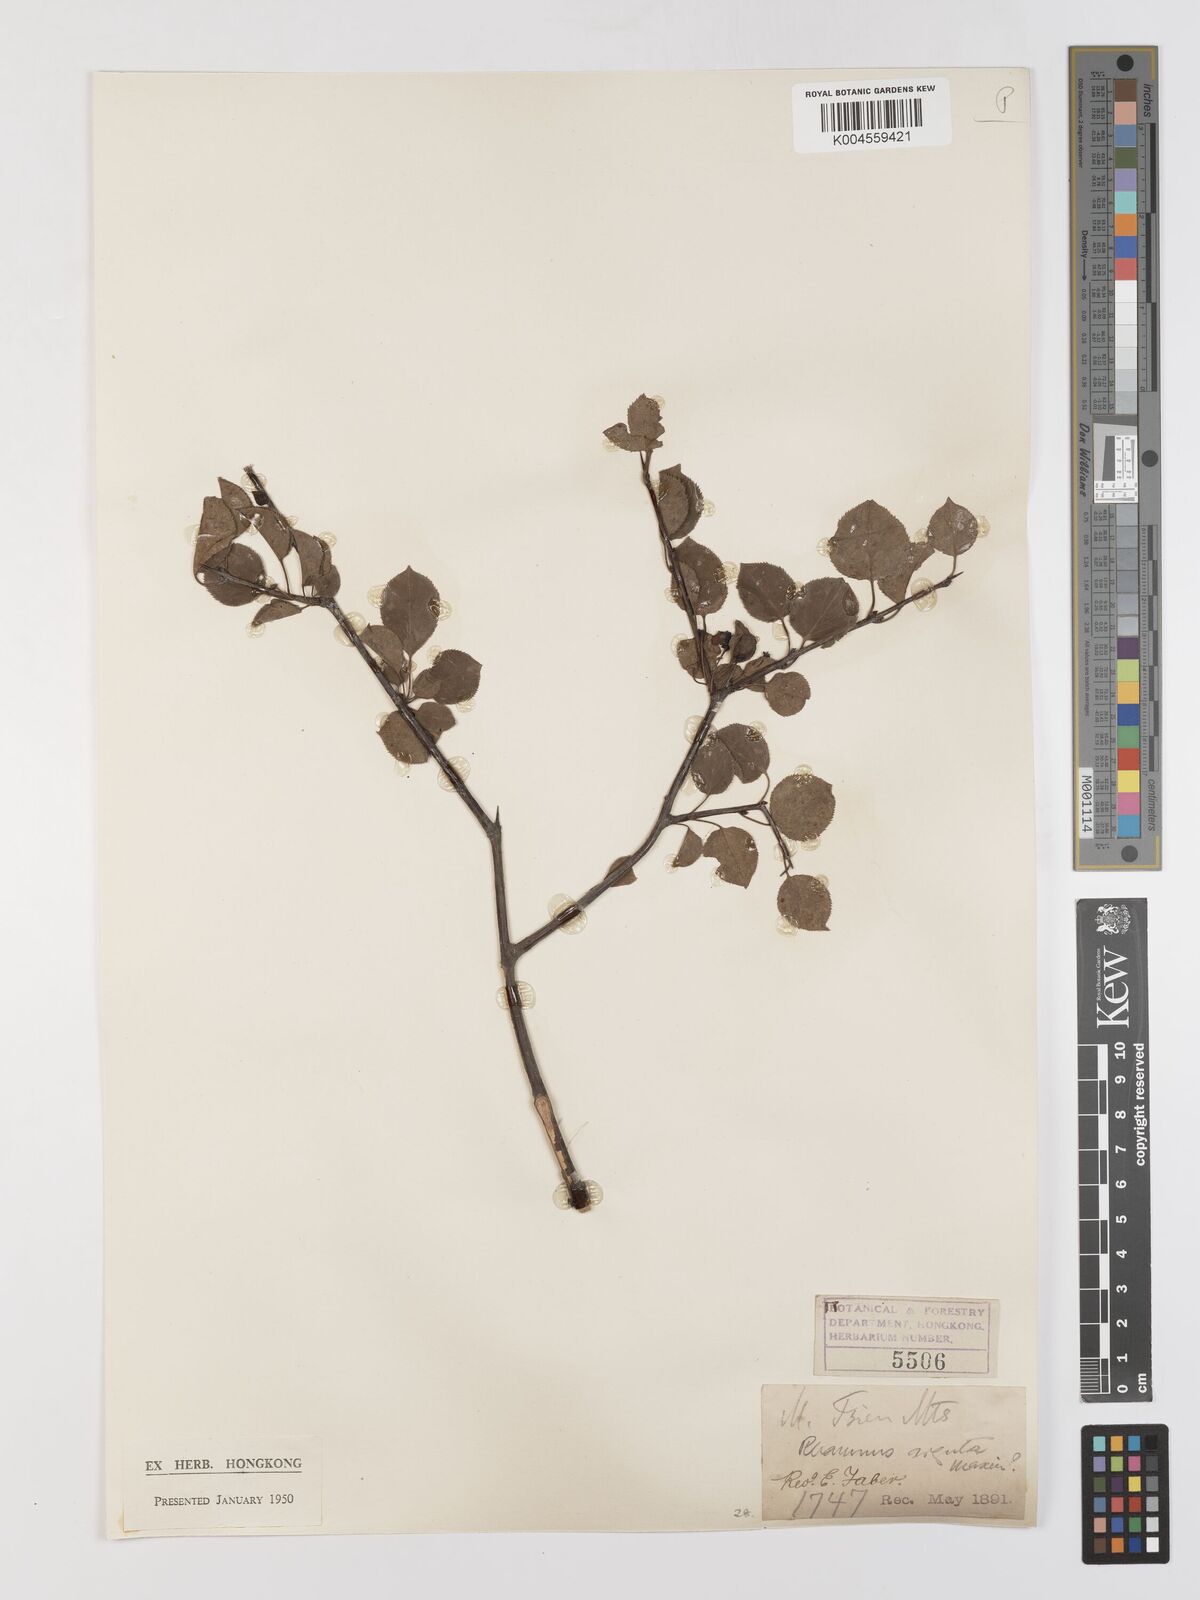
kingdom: Plantae
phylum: Tracheophyta
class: Magnoliopsida
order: Rosales
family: Rhamnaceae
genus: Rhamnus
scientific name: Rhamnus arguta
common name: Sharp-tooth buckthorn
